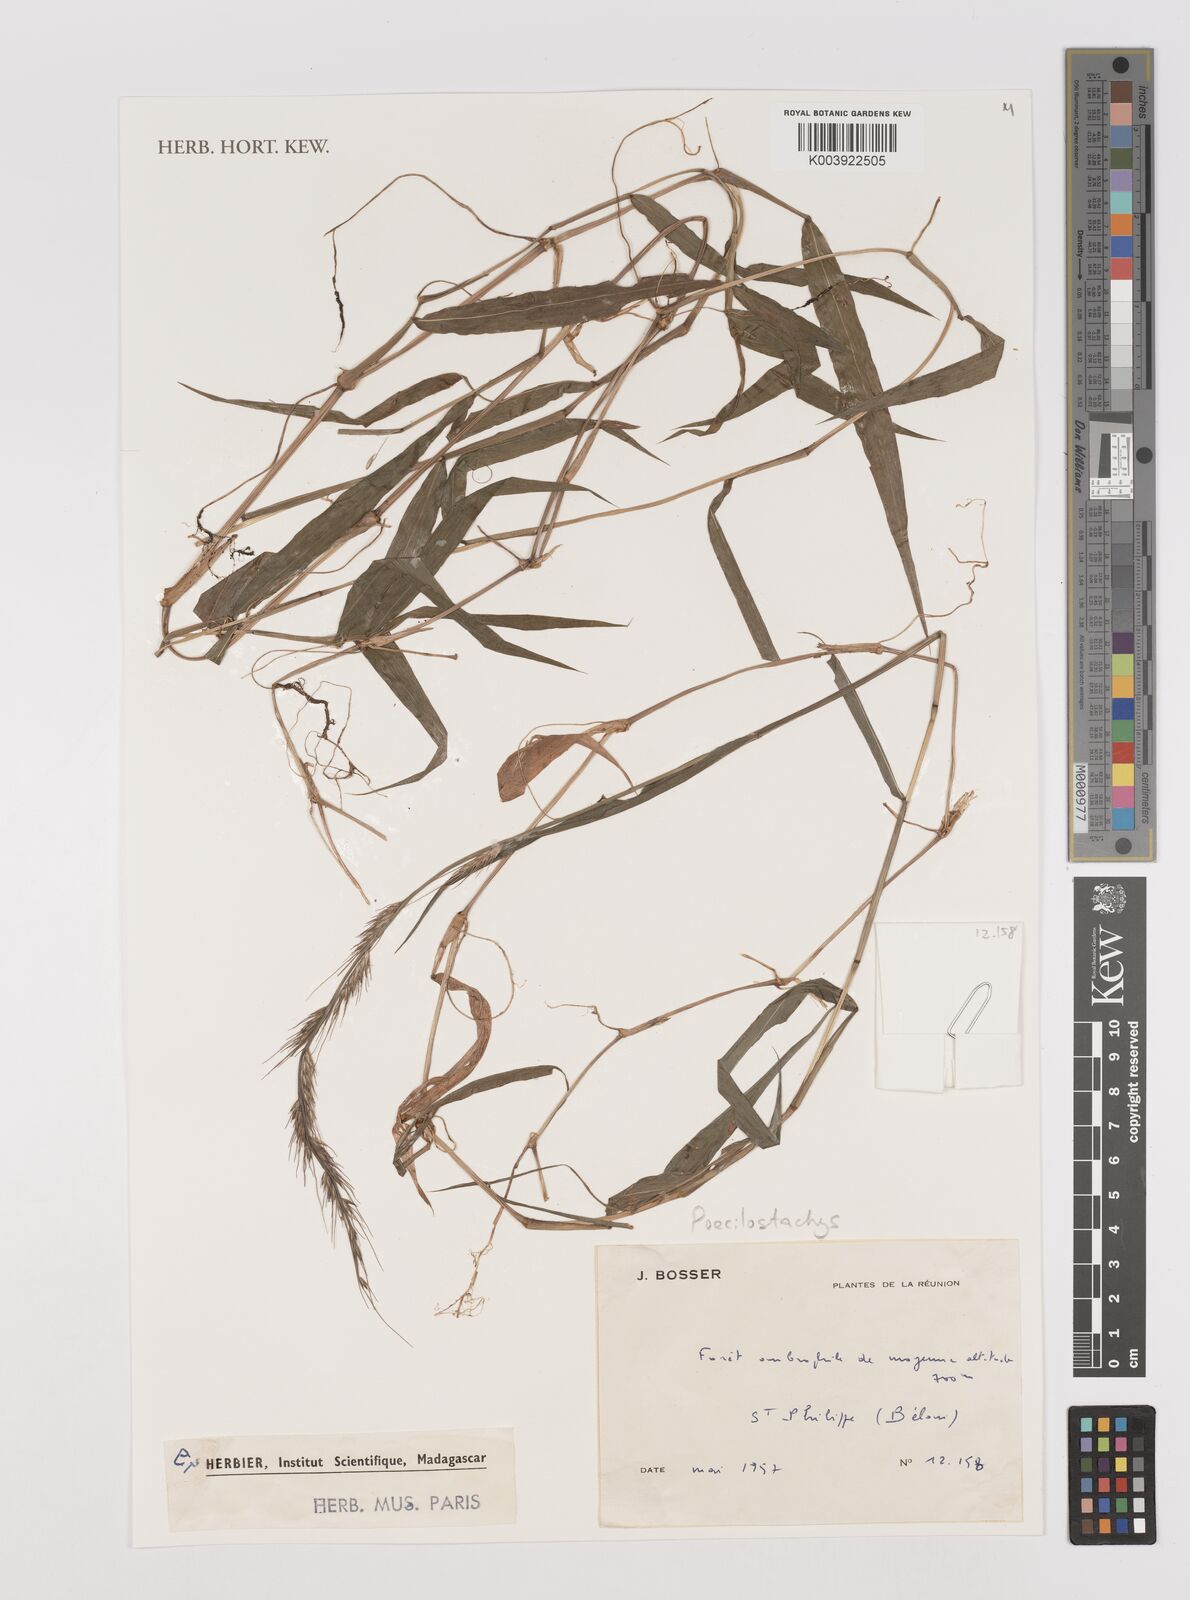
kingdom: Plantae
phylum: Tracheophyta
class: Liliopsida
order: Poales
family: Poaceae
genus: Poecilostachys
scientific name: Poecilostachys
